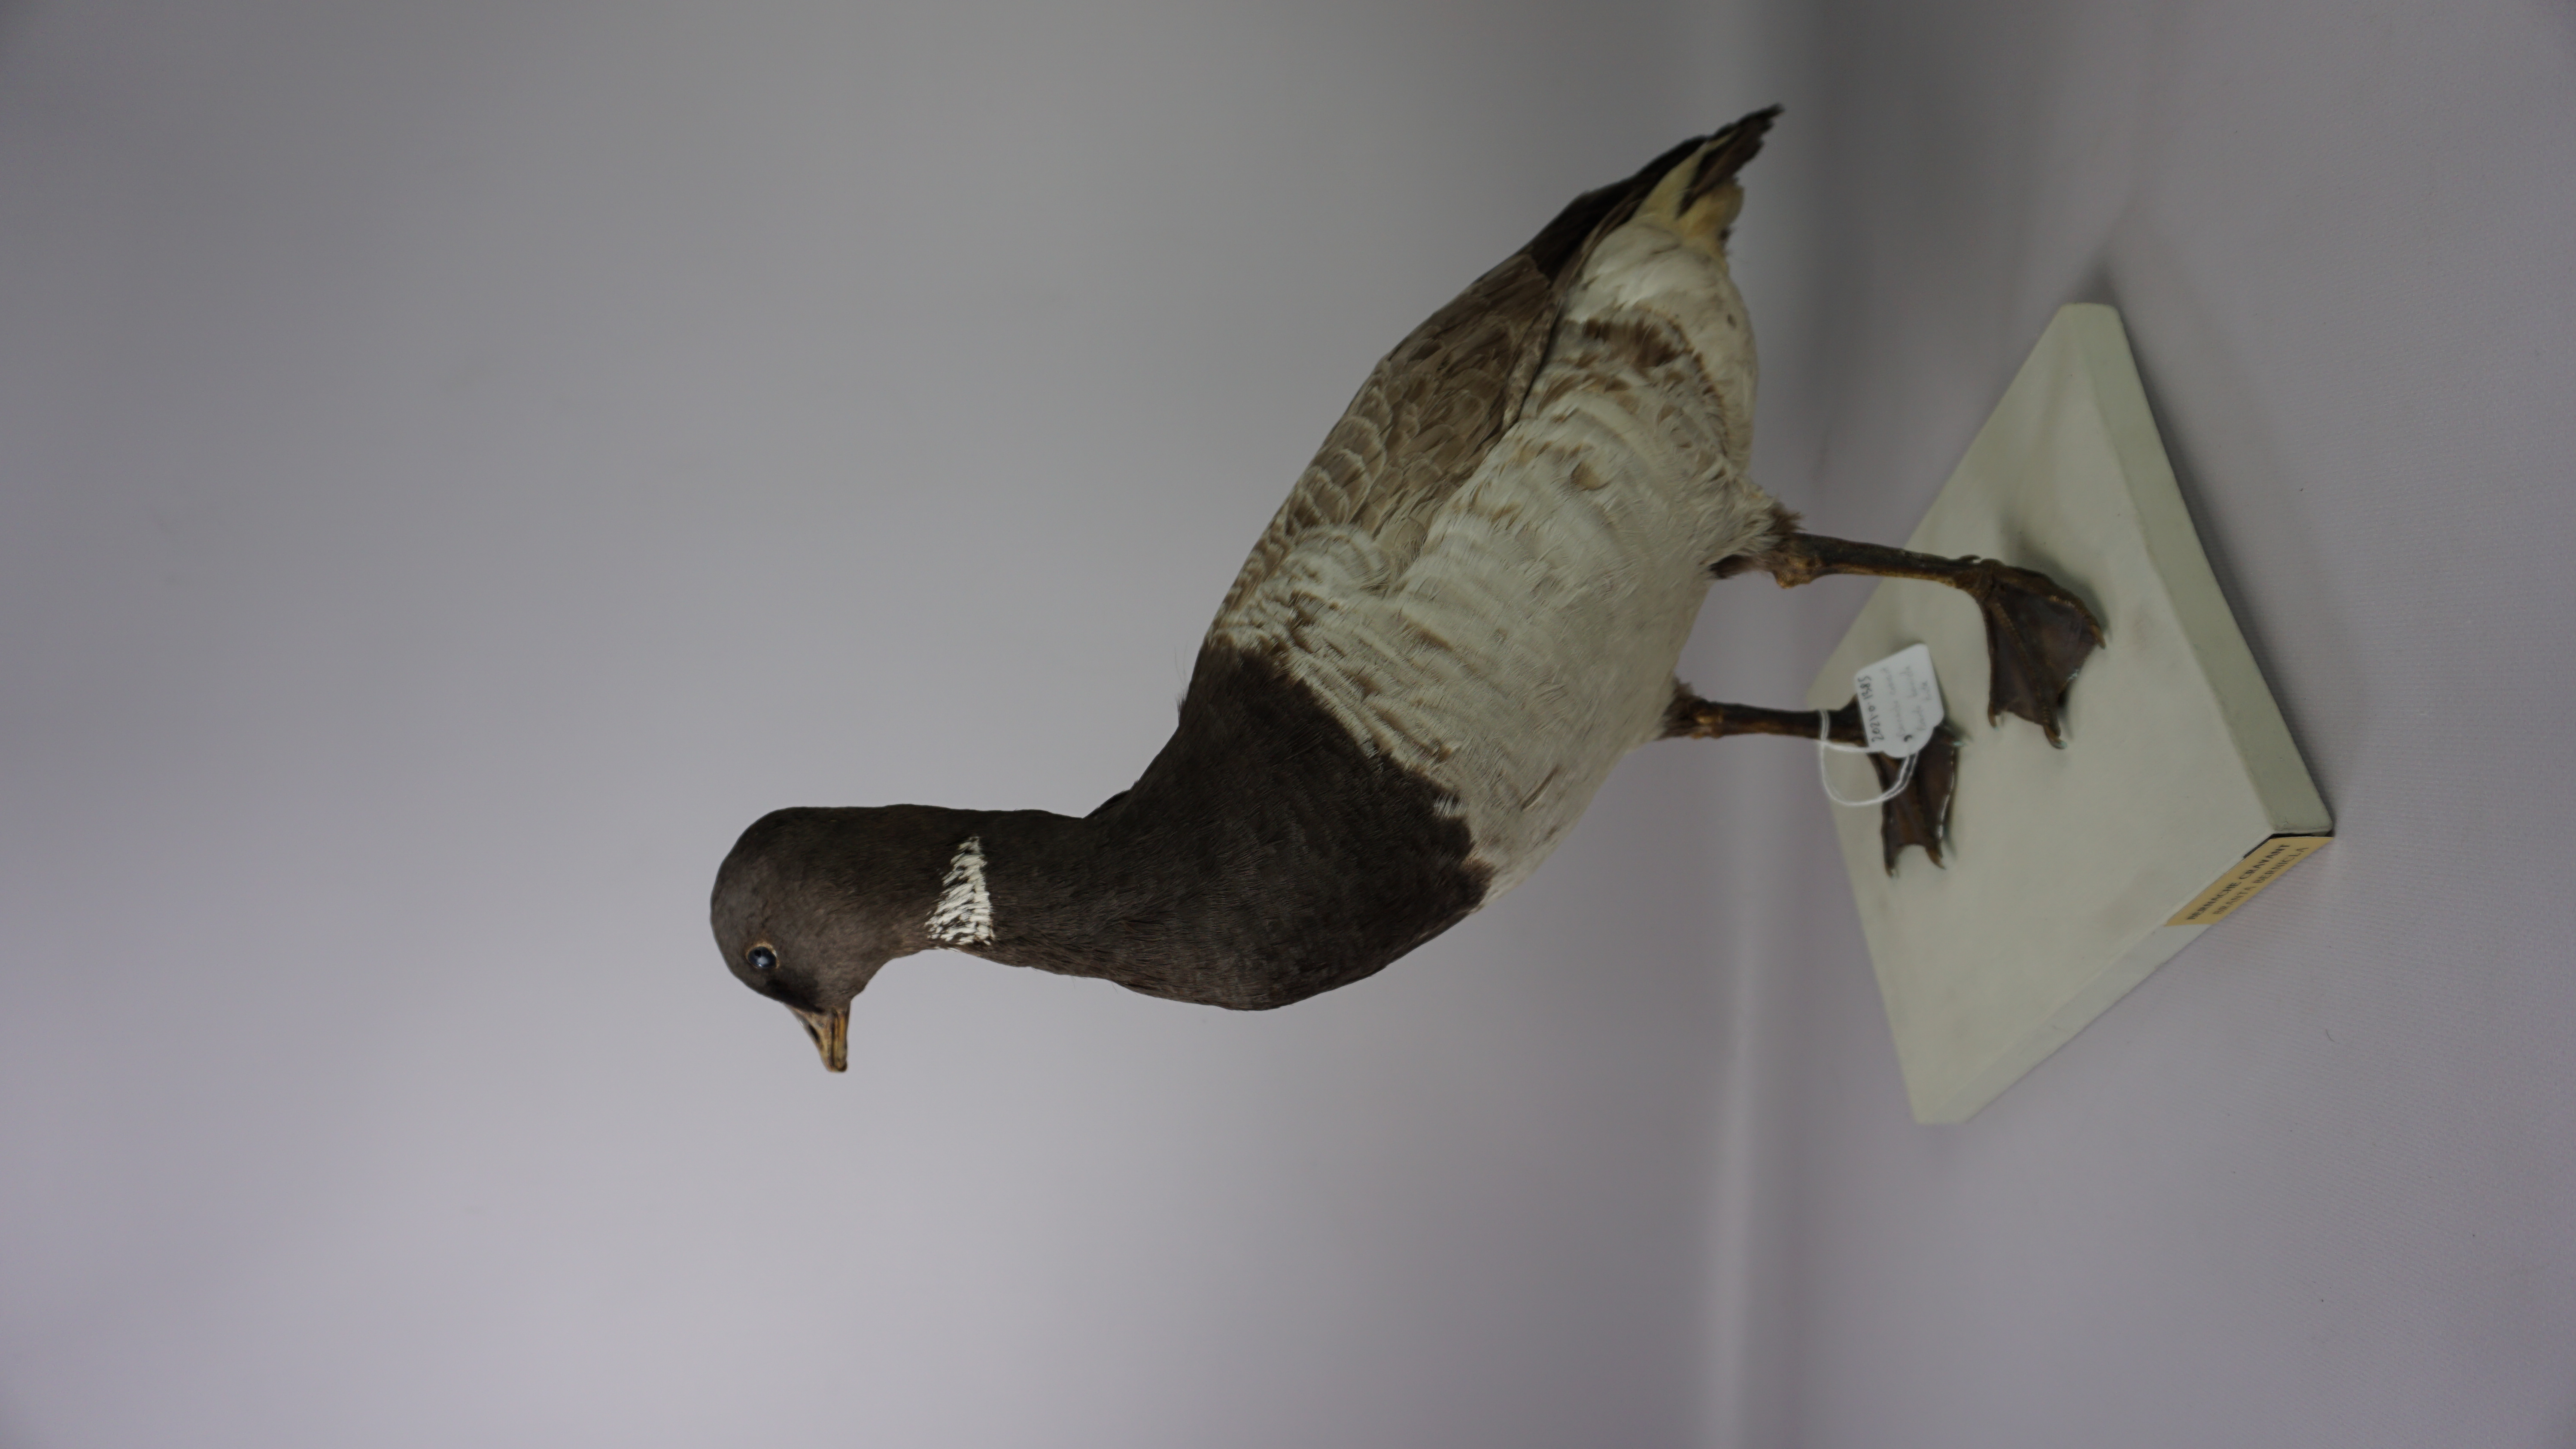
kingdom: Animalia
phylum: Chordata
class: Aves
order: Anseriformes
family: Anatidae
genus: Branta
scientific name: Branta bernicla
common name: Brant goose
